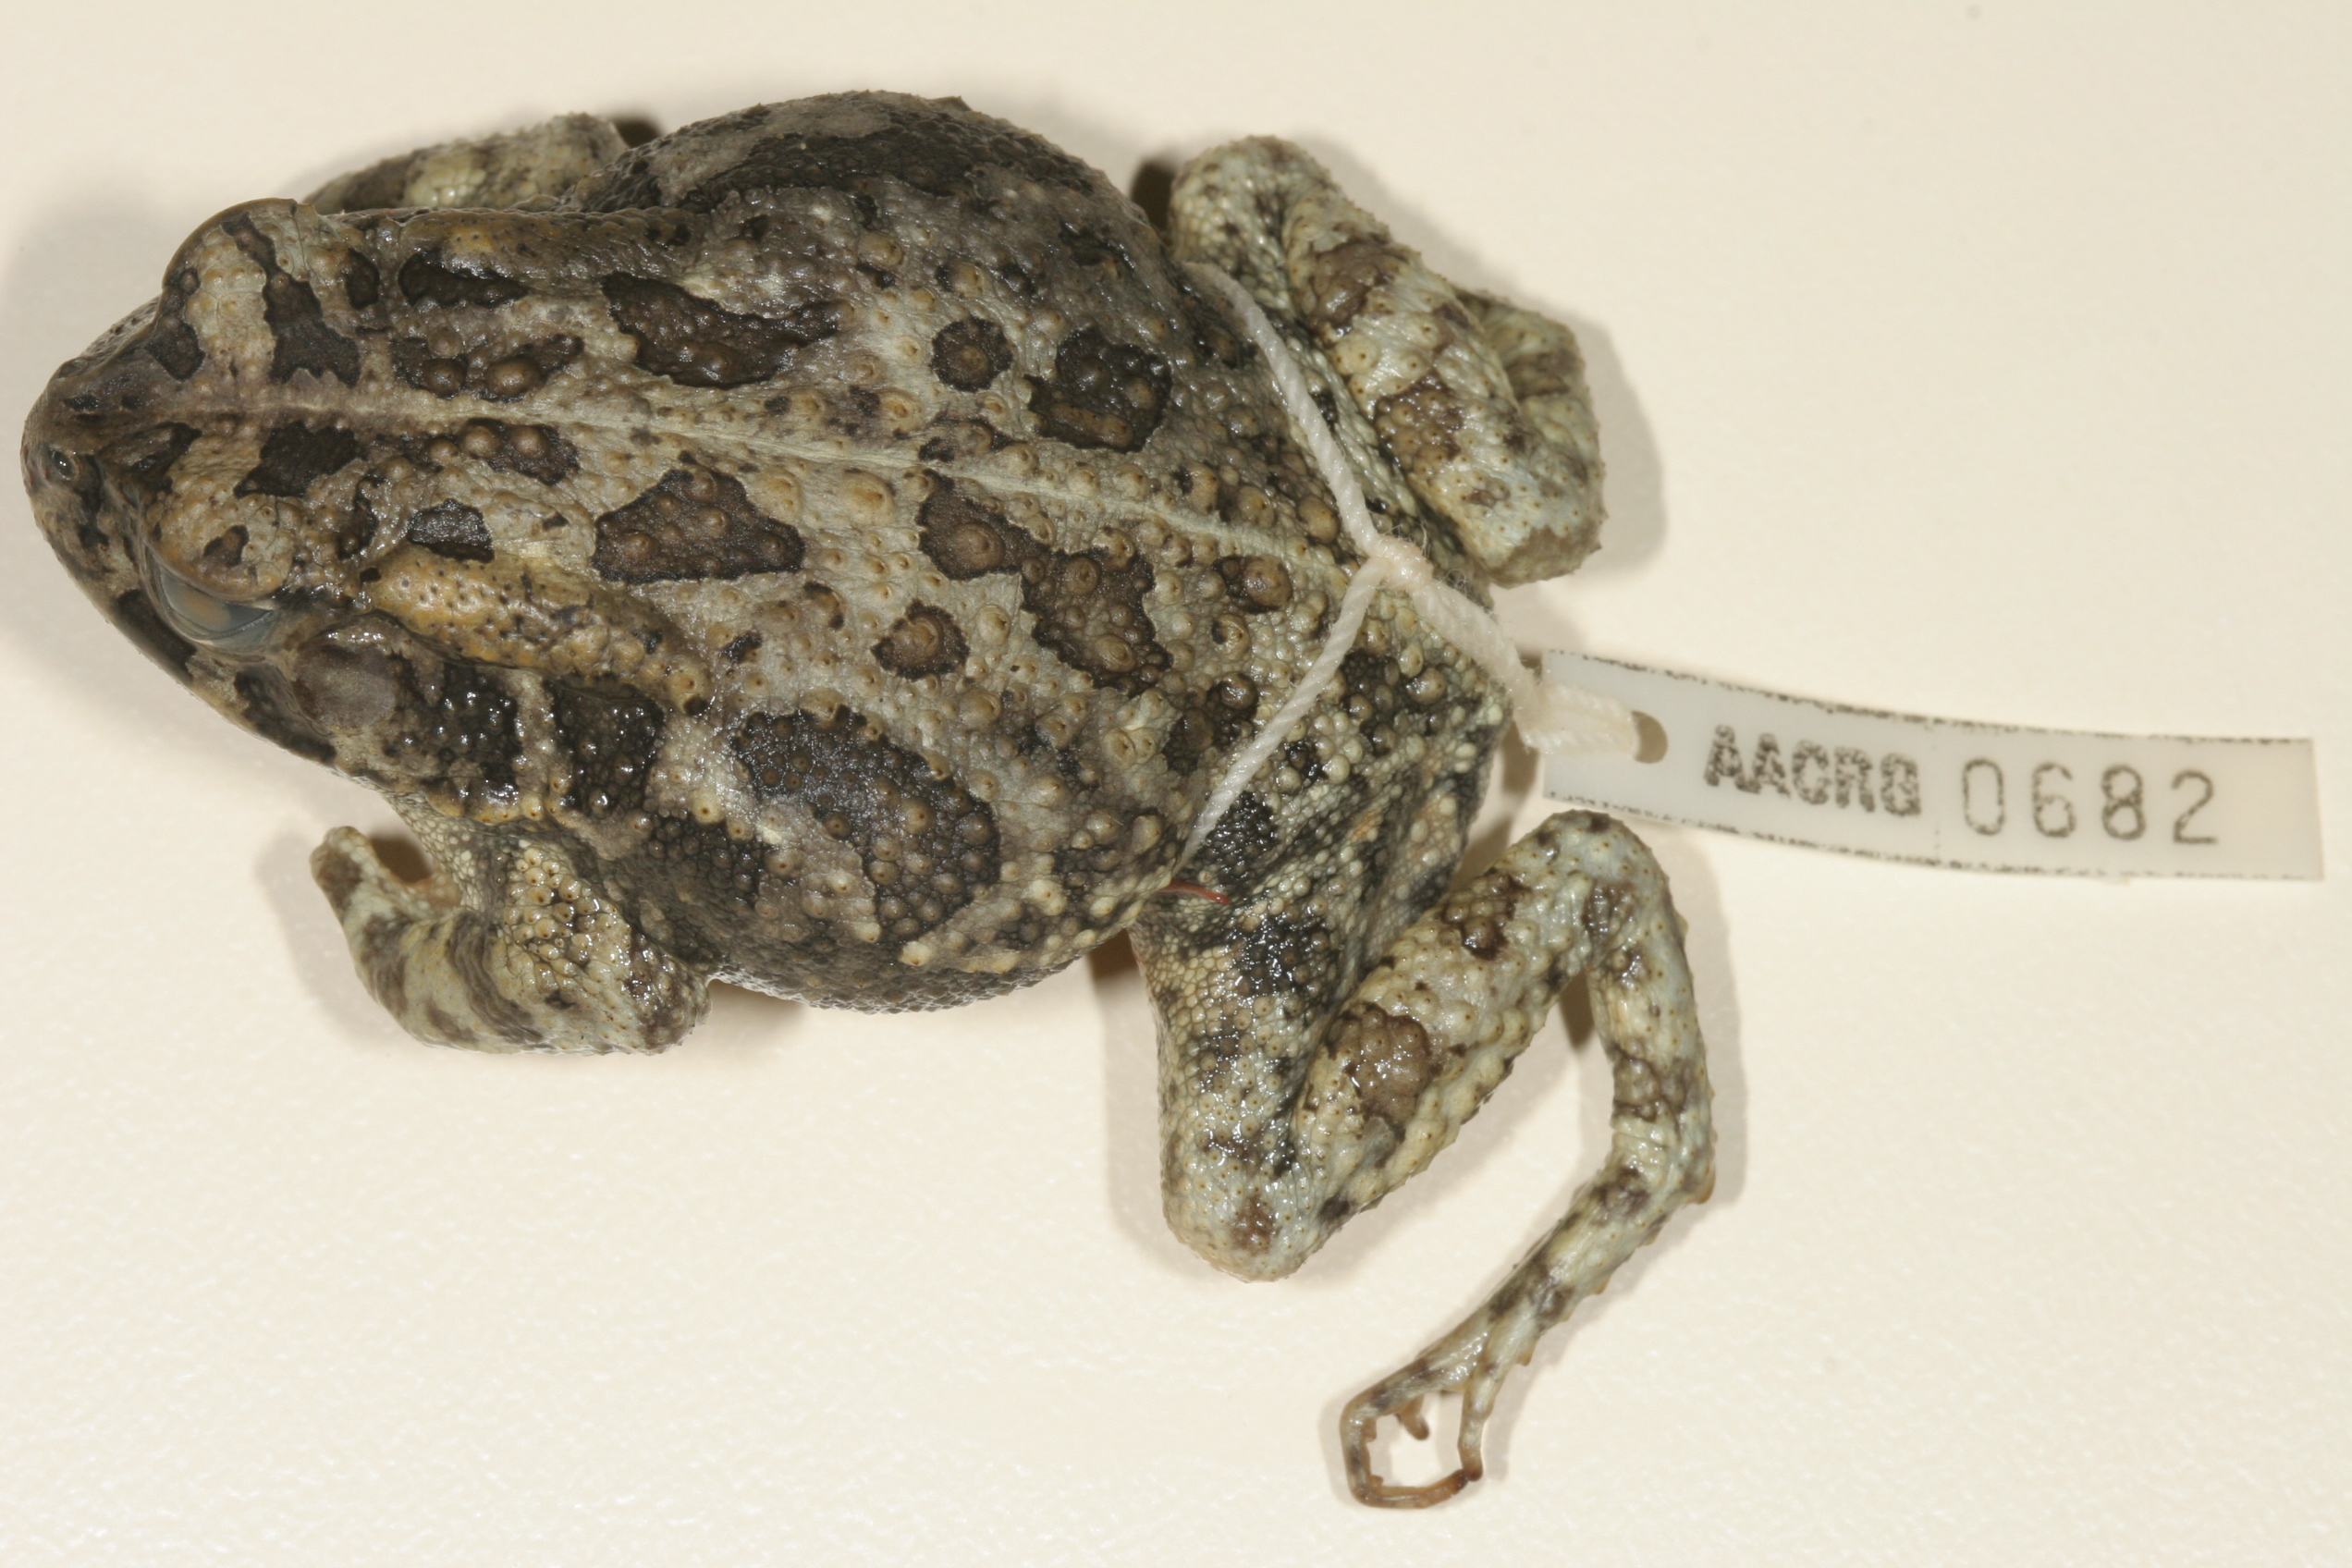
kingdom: Animalia
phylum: Chordata
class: Amphibia
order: Anura
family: Bufonidae
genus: Sclerophrys
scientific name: Sclerophrys gutturalis
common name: African common toad
